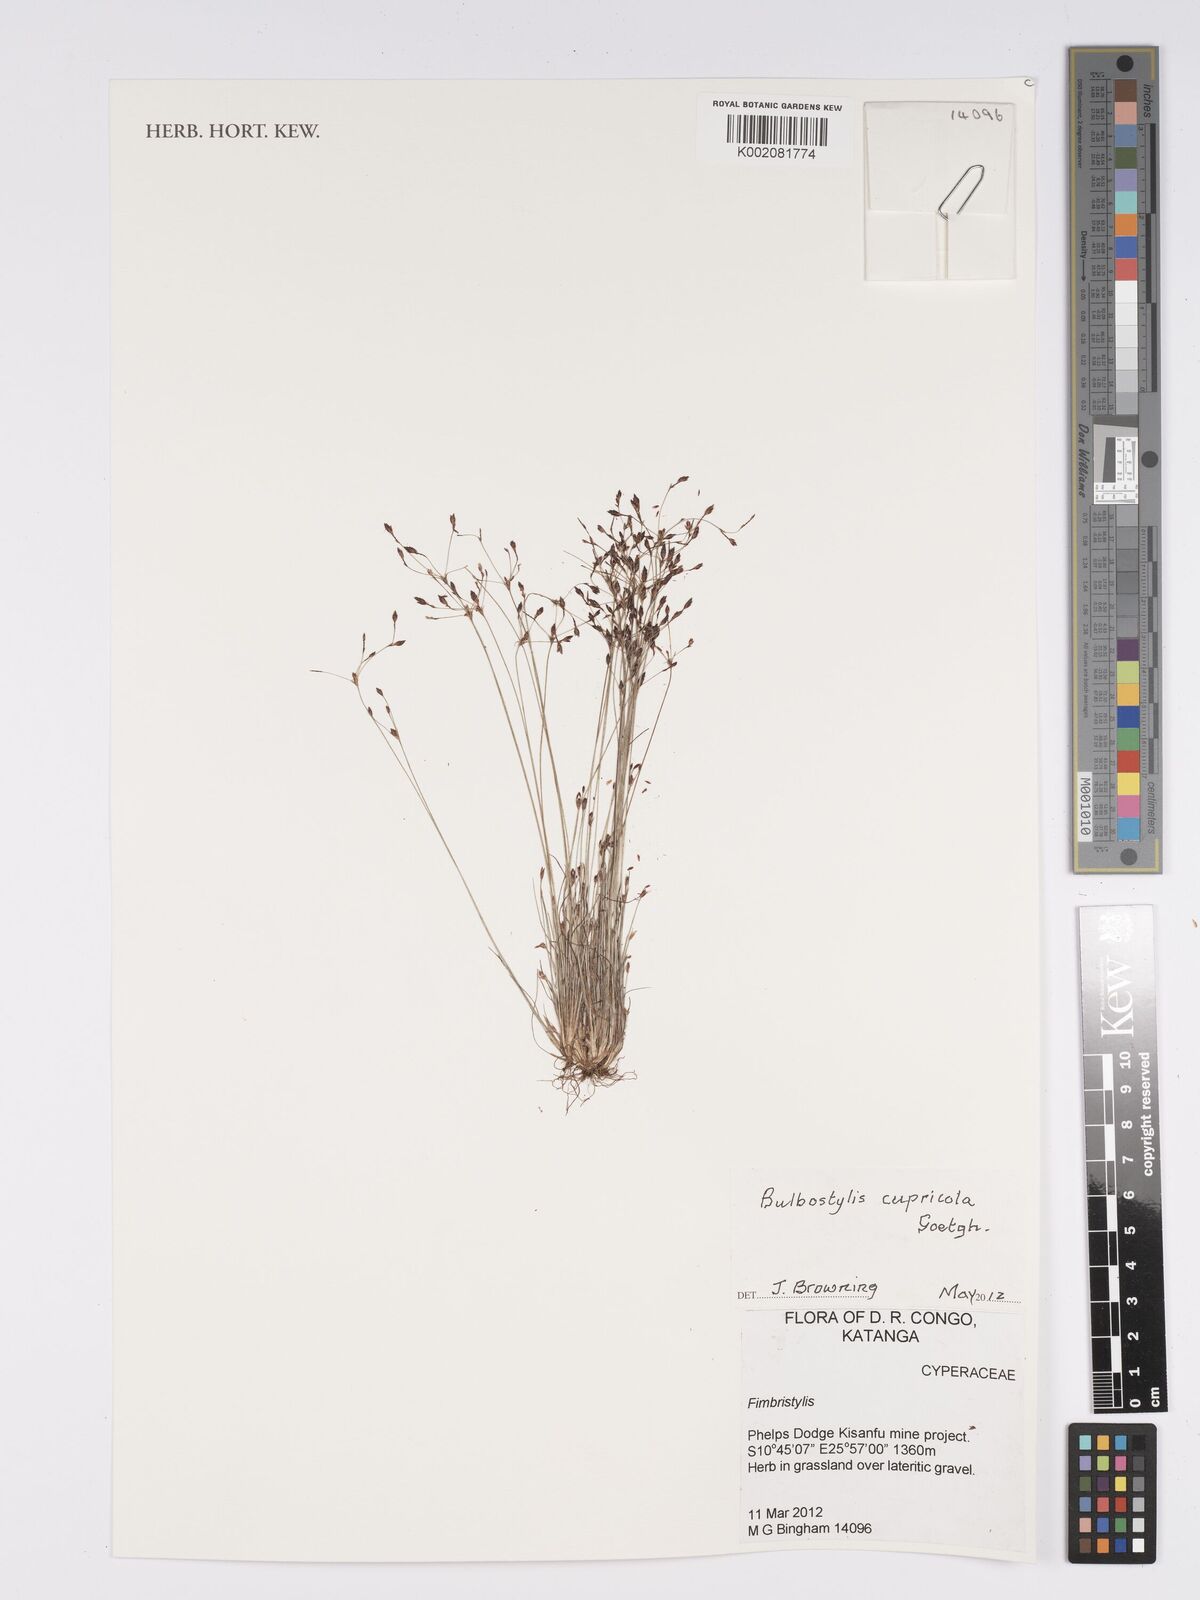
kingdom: Plantae
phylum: Tracheophyta
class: Liliopsida
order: Poales
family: Cyperaceae
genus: Bulbostylis
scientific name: Bulbostylis cupricola
